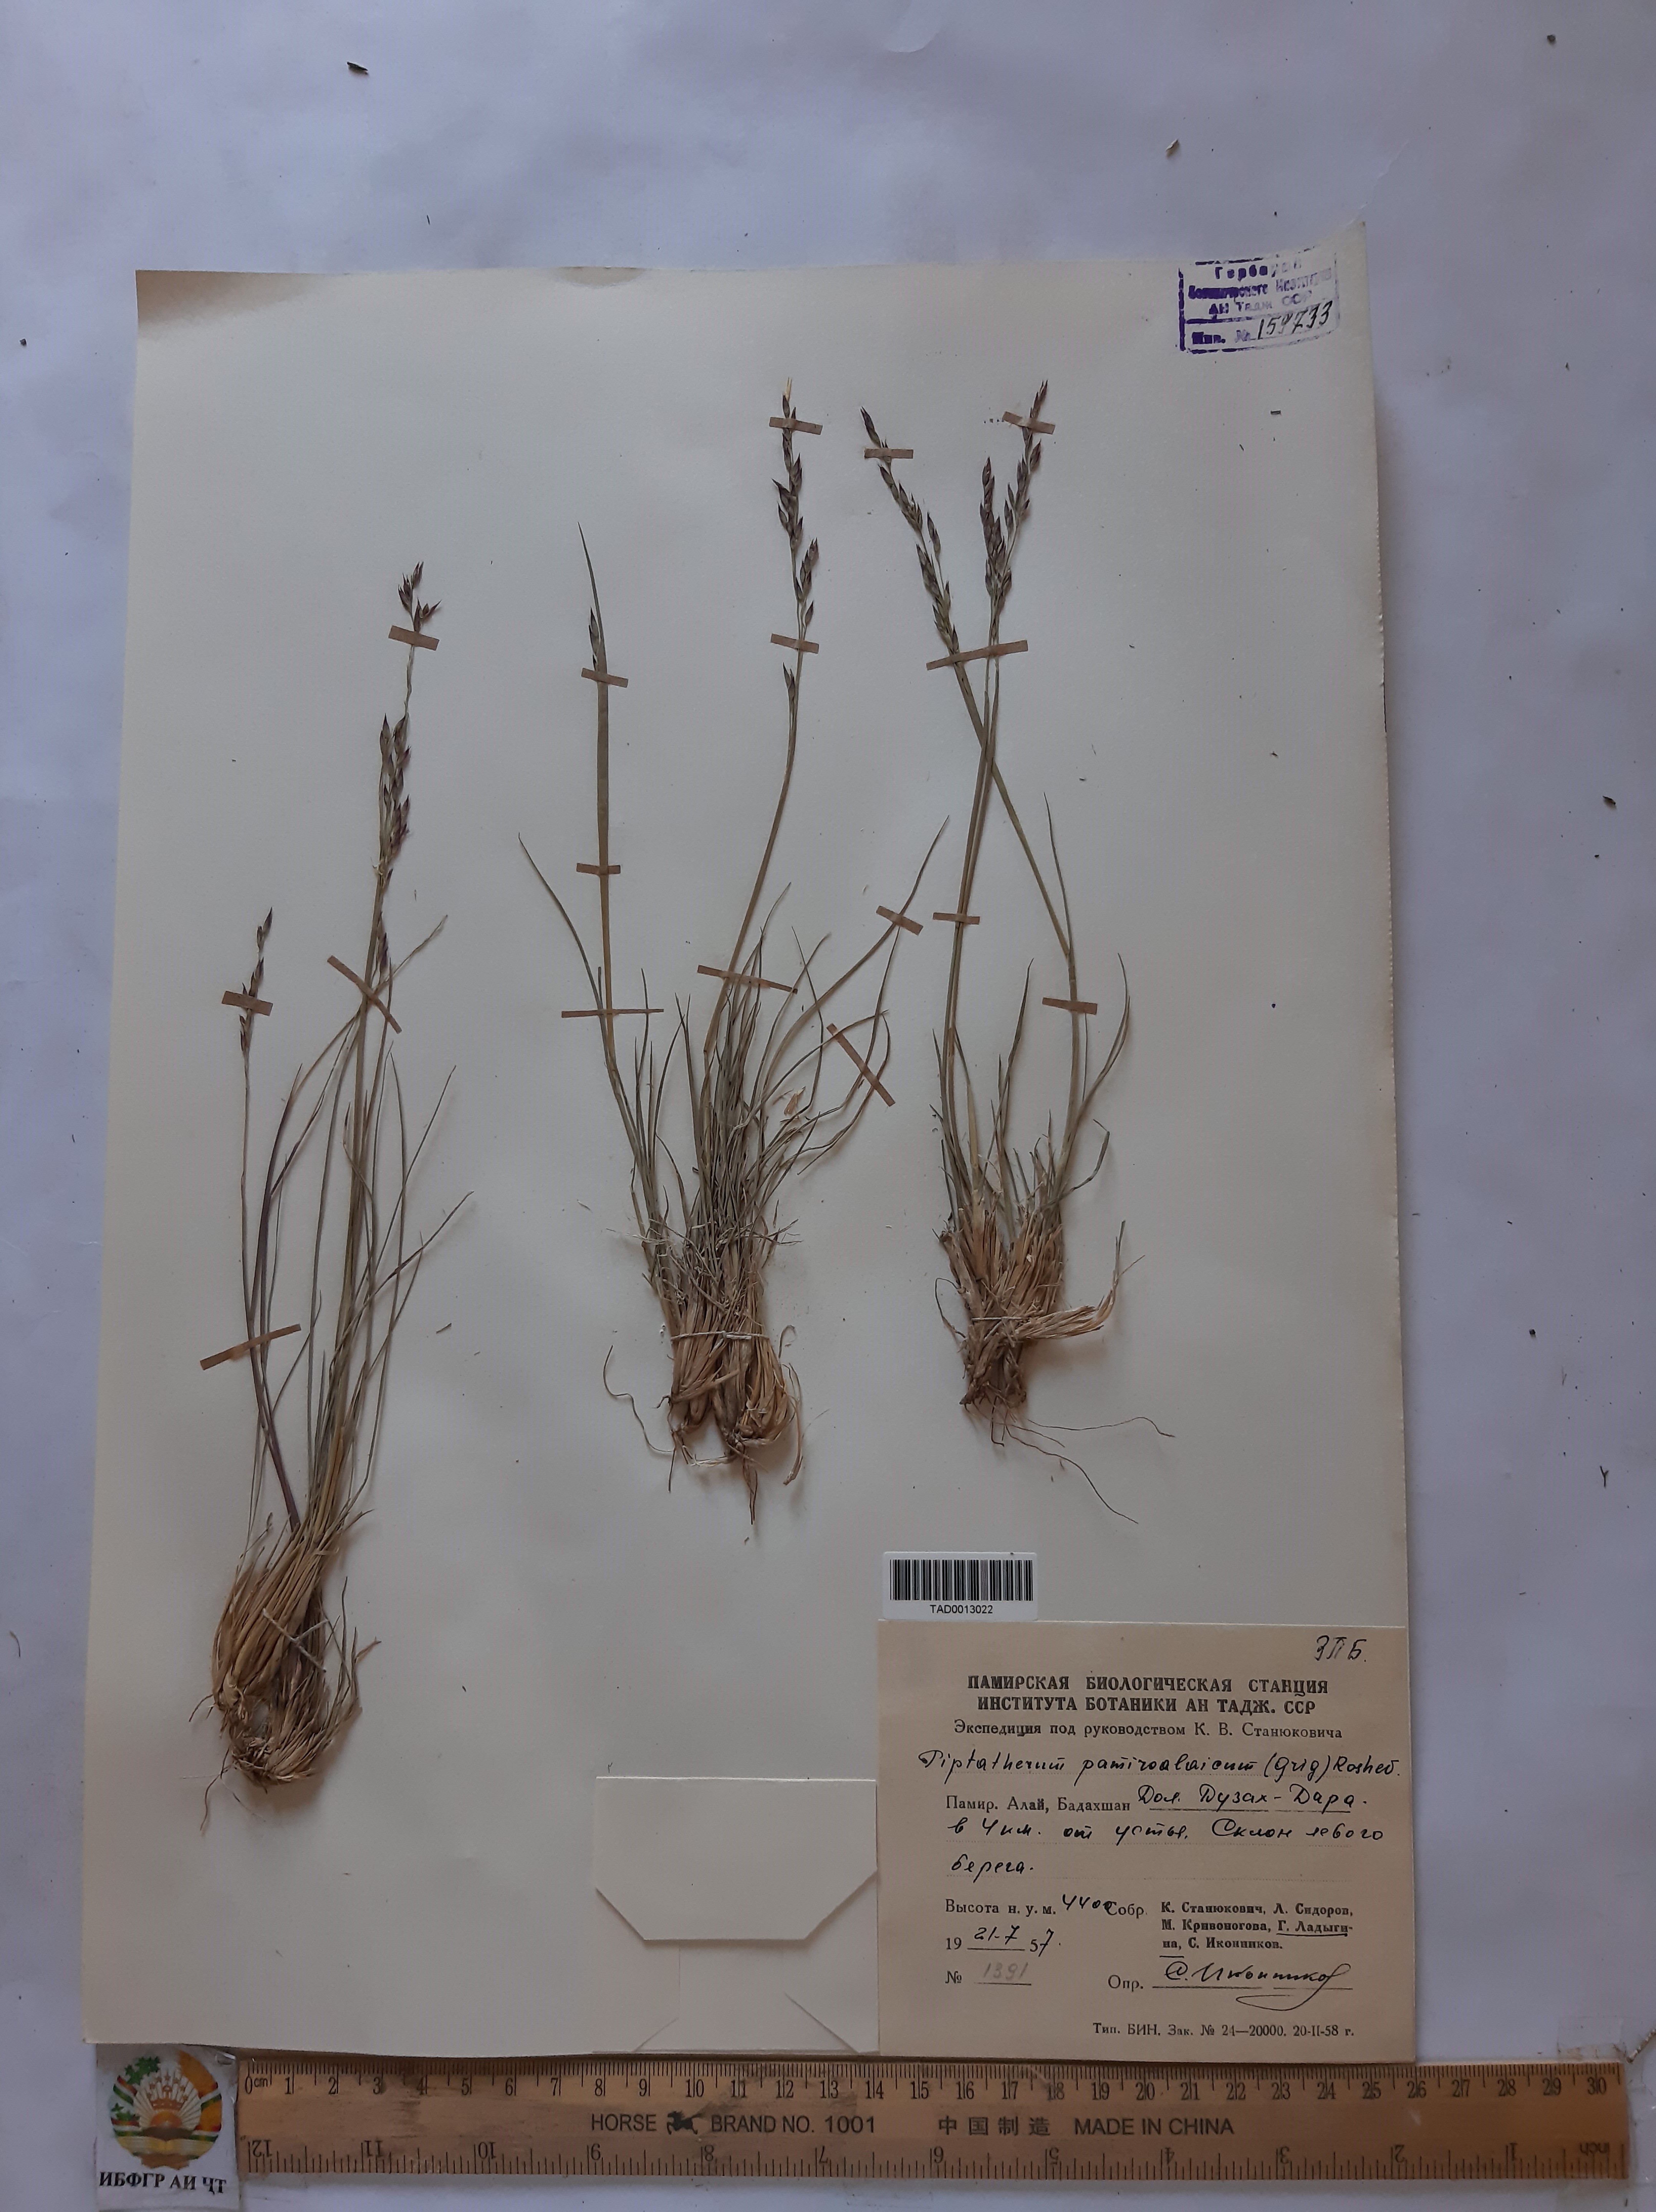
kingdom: Plantae
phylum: Tracheophyta
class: Liliopsida
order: Poales
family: Poaceae
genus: Piptatherum
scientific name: Piptatherum laterale
